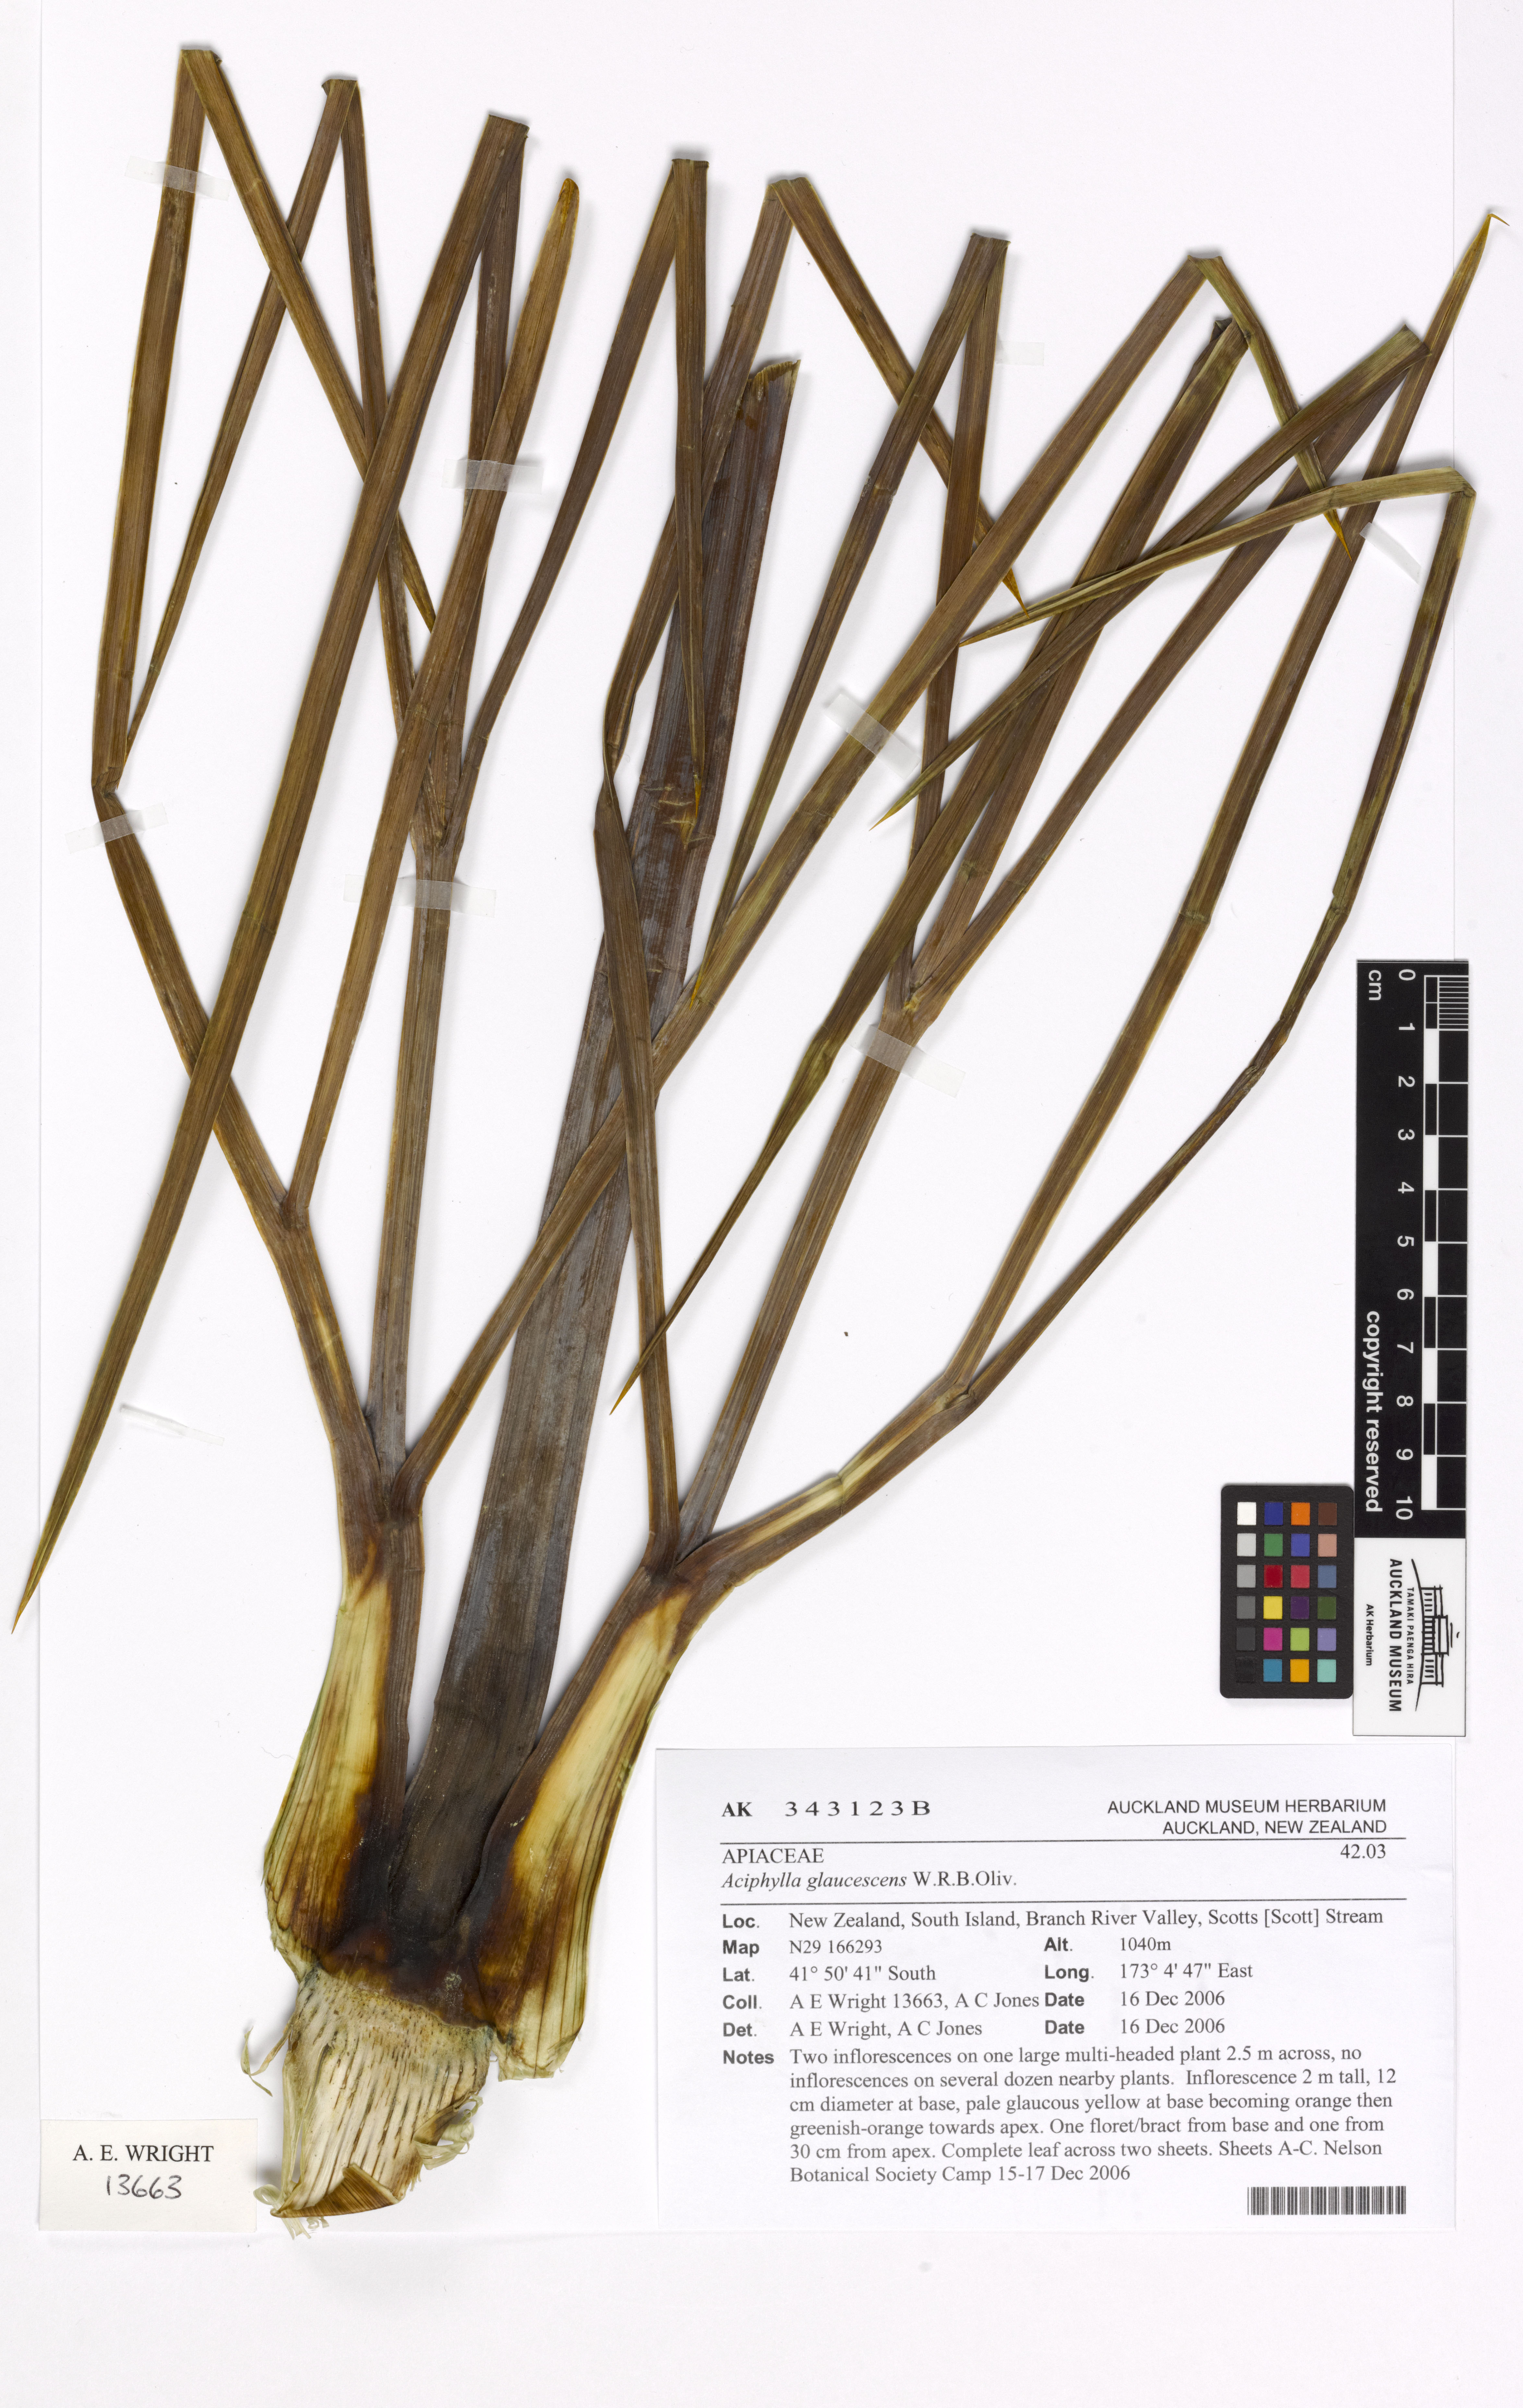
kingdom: Plantae
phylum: Tracheophyta
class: Magnoliopsida
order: Apiales
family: Apiaceae
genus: Aciphylla
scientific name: Aciphylla glaucescens
